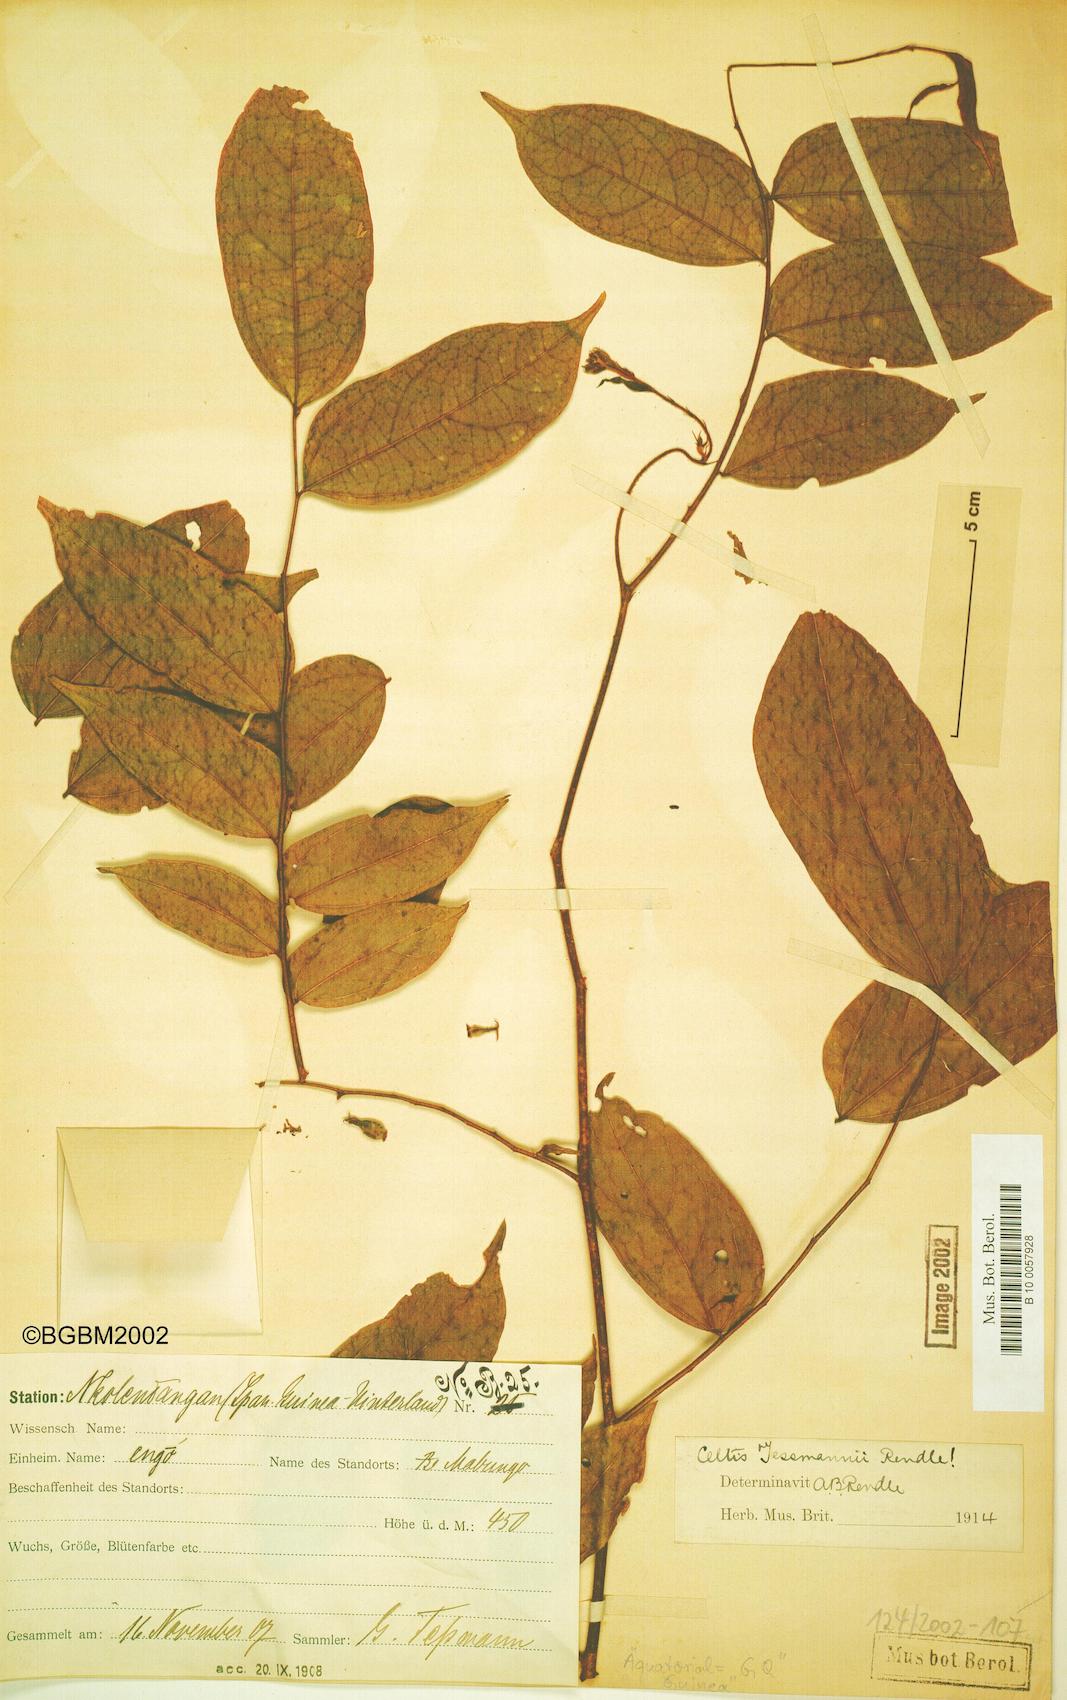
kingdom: Plantae
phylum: Tracheophyta
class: Magnoliopsida
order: Rosales
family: Cannabaceae
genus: Celtis
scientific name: Celtis tessmannii
